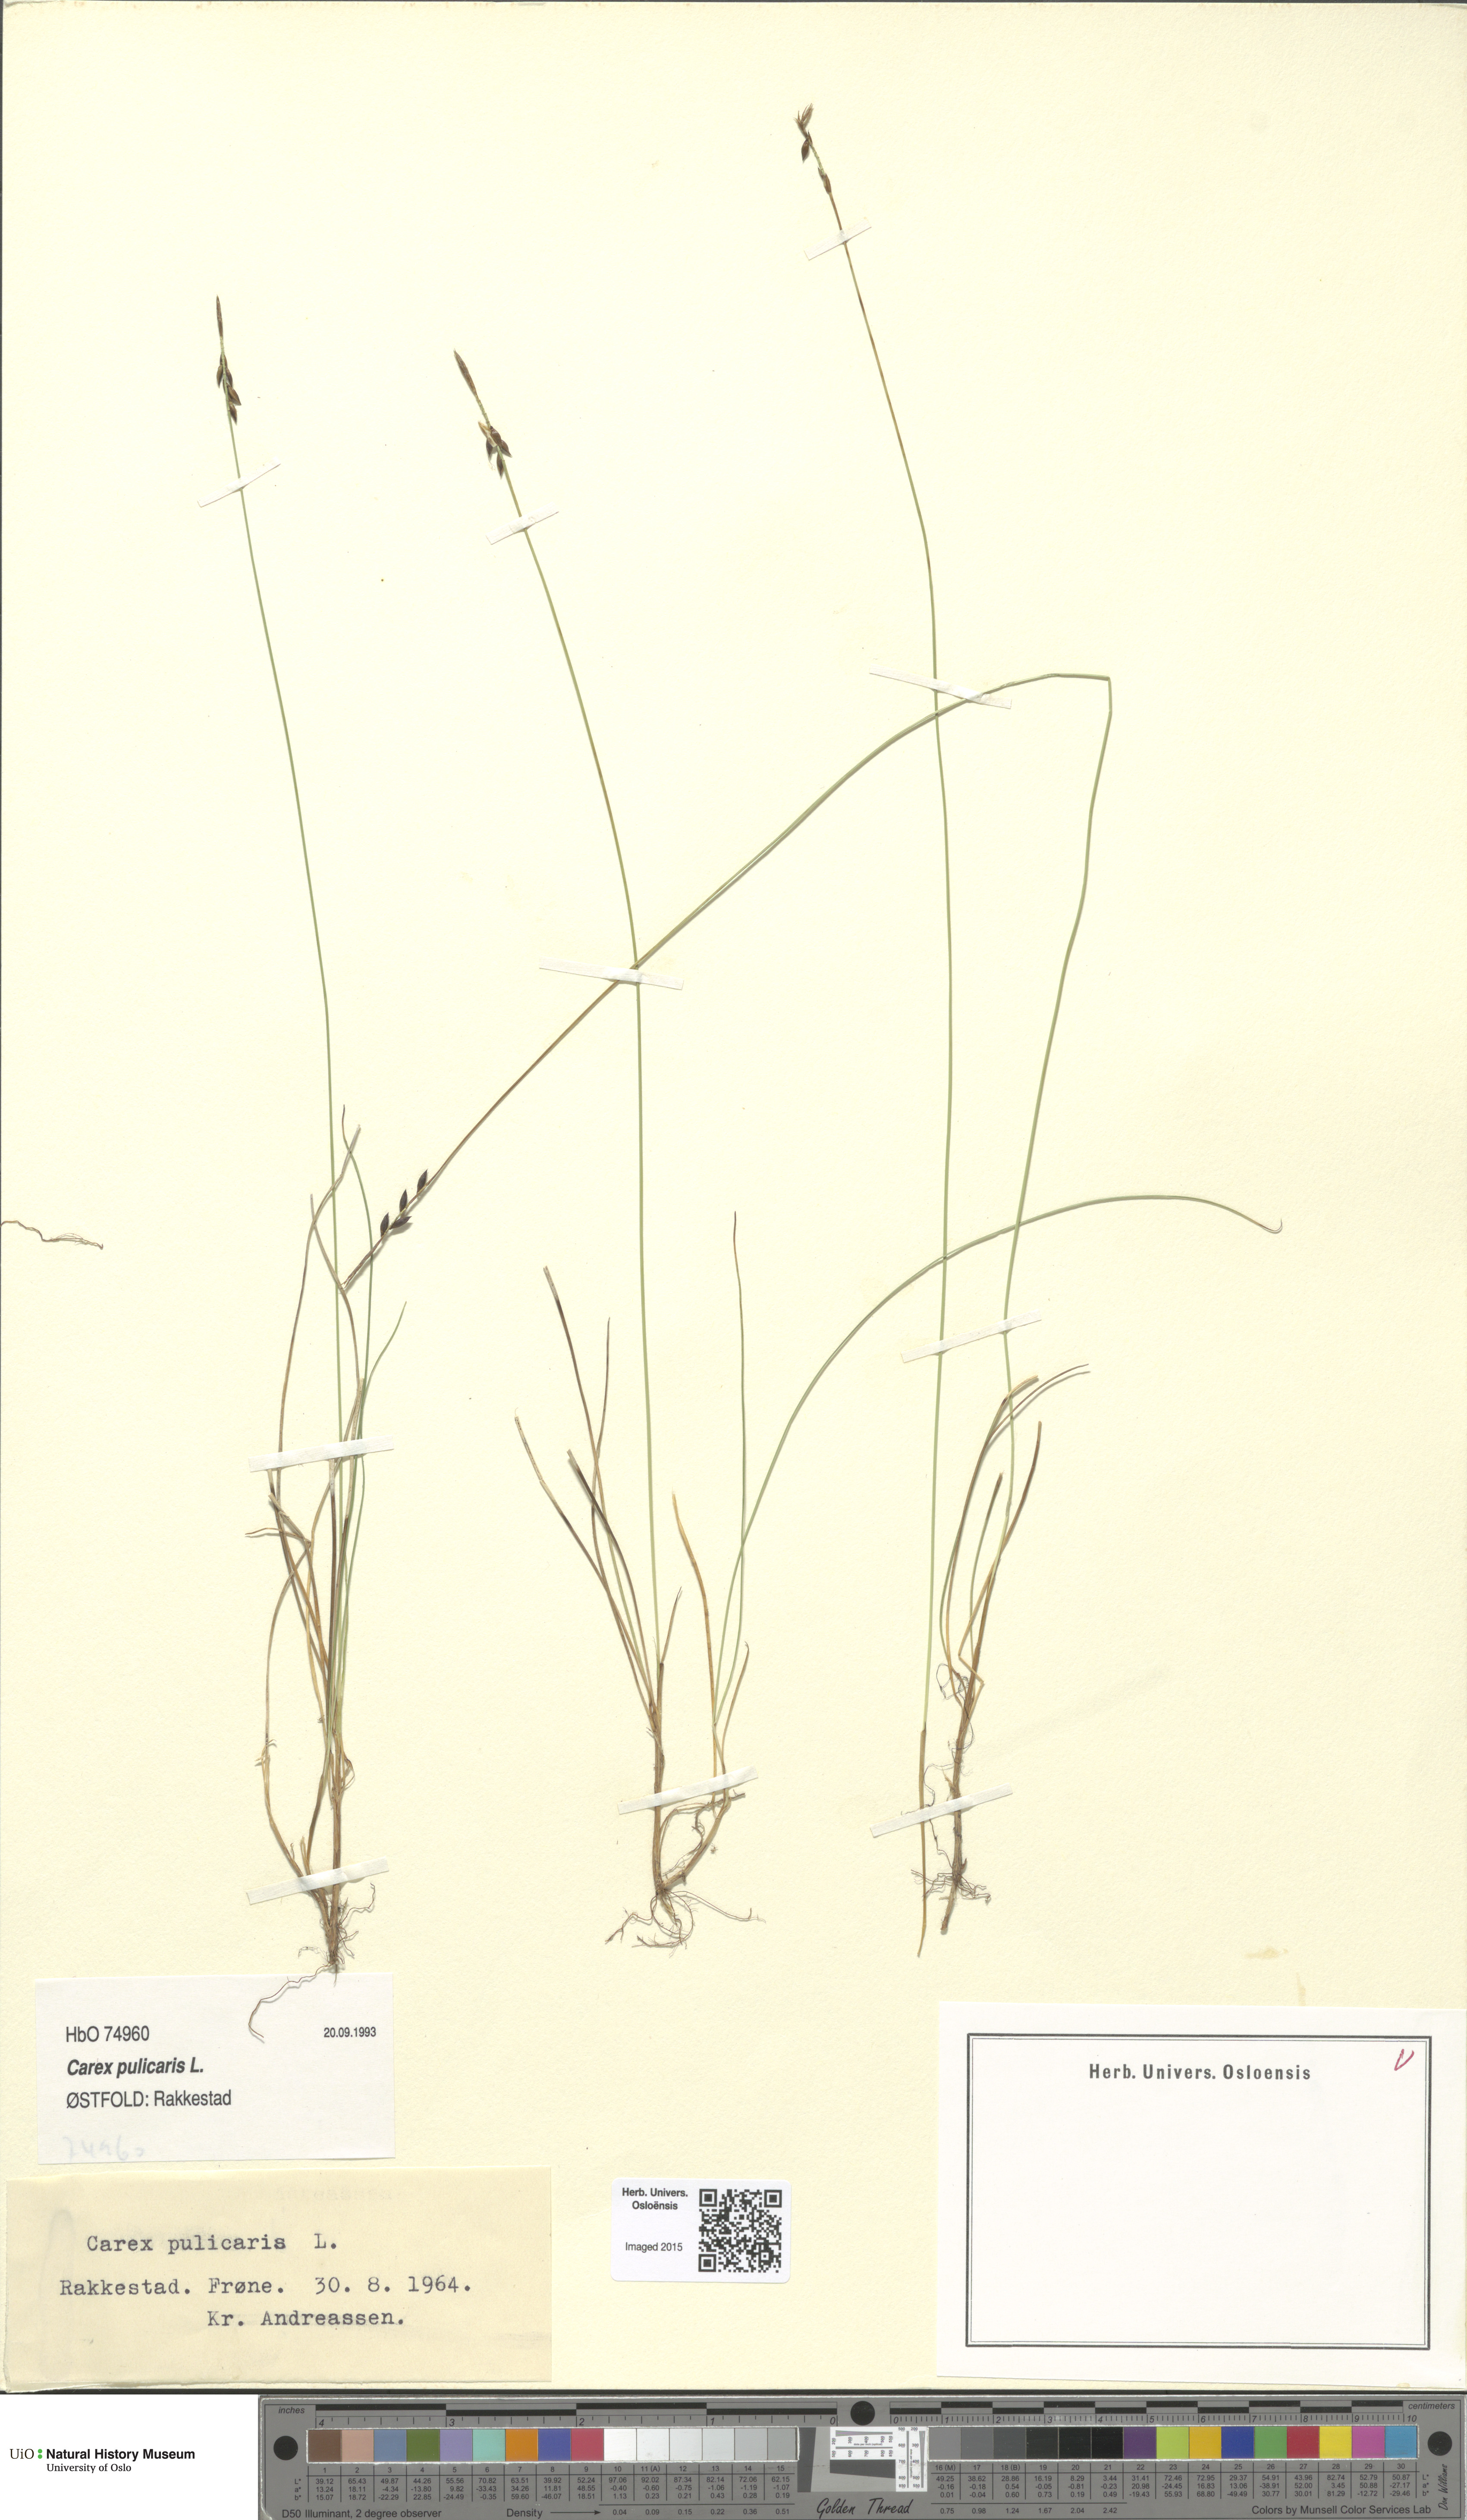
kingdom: Plantae
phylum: Tracheophyta
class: Liliopsida
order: Poales
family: Cyperaceae
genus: Carex
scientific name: Carex pulicaris
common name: Flea sedge
